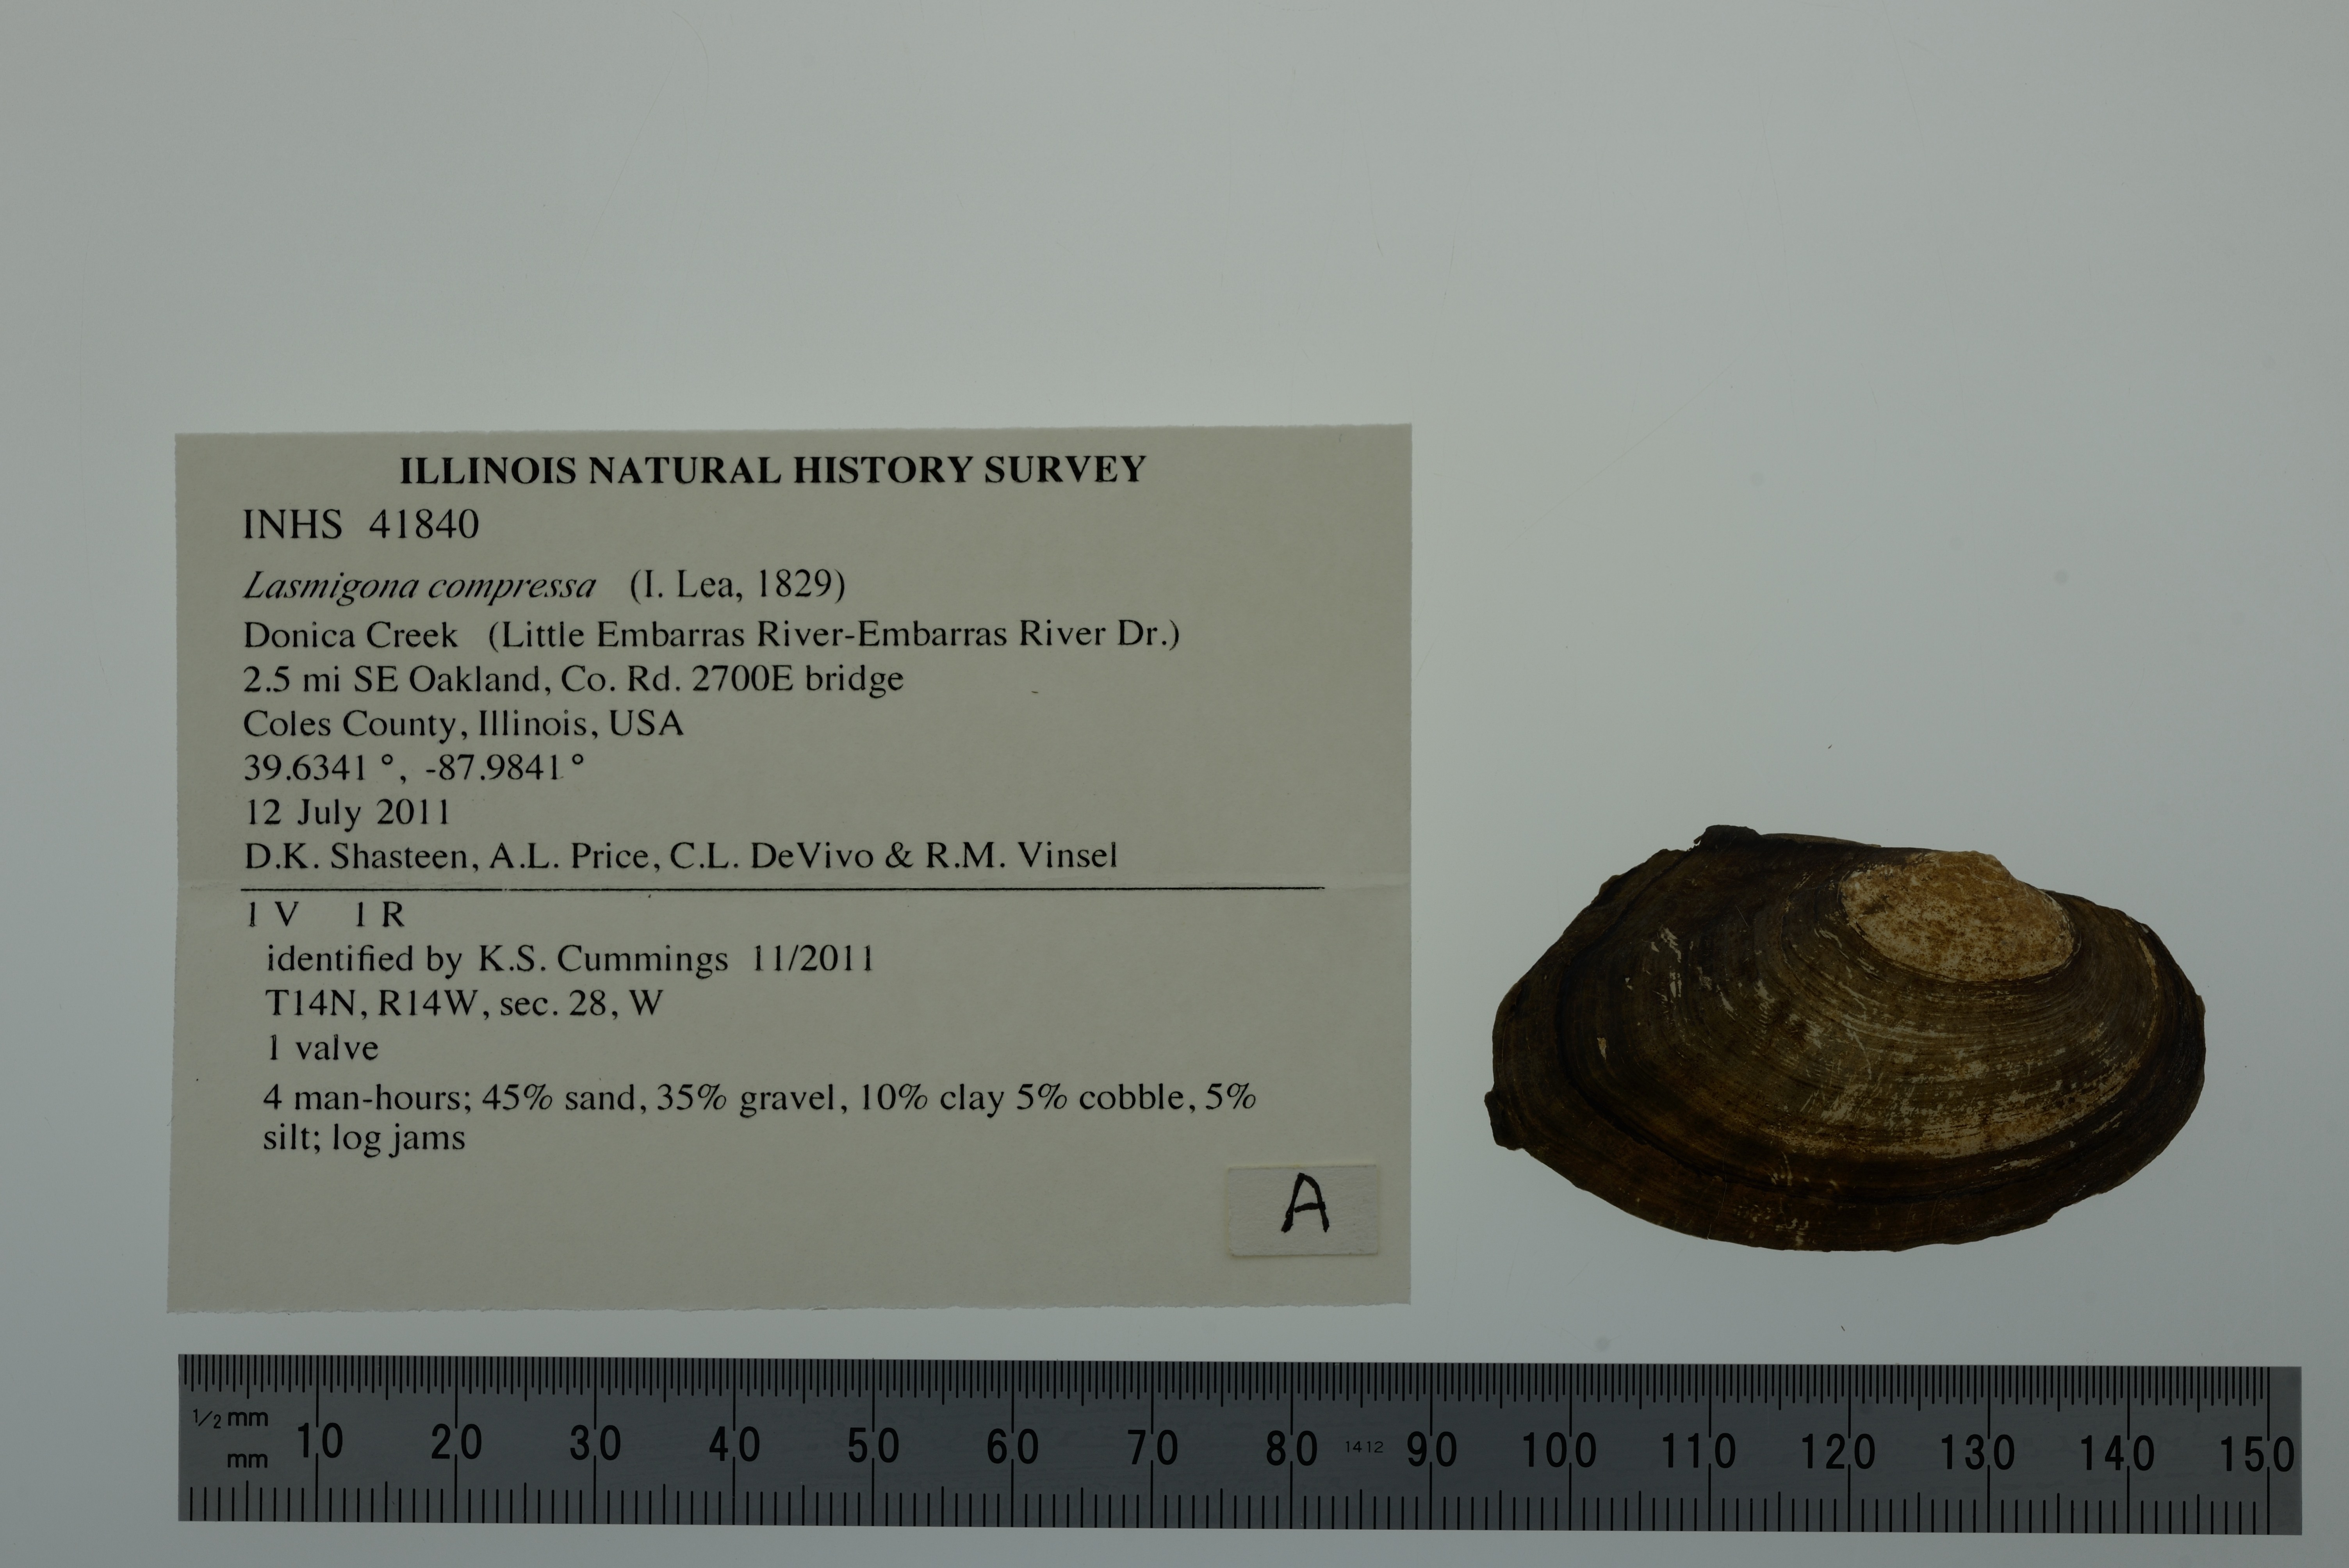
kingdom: Animalia
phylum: Mollusca
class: Bivalvia
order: Unionida
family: Unionidae
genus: Lasmigona
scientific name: Lasmigona compressa
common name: Creek heelsplitter
